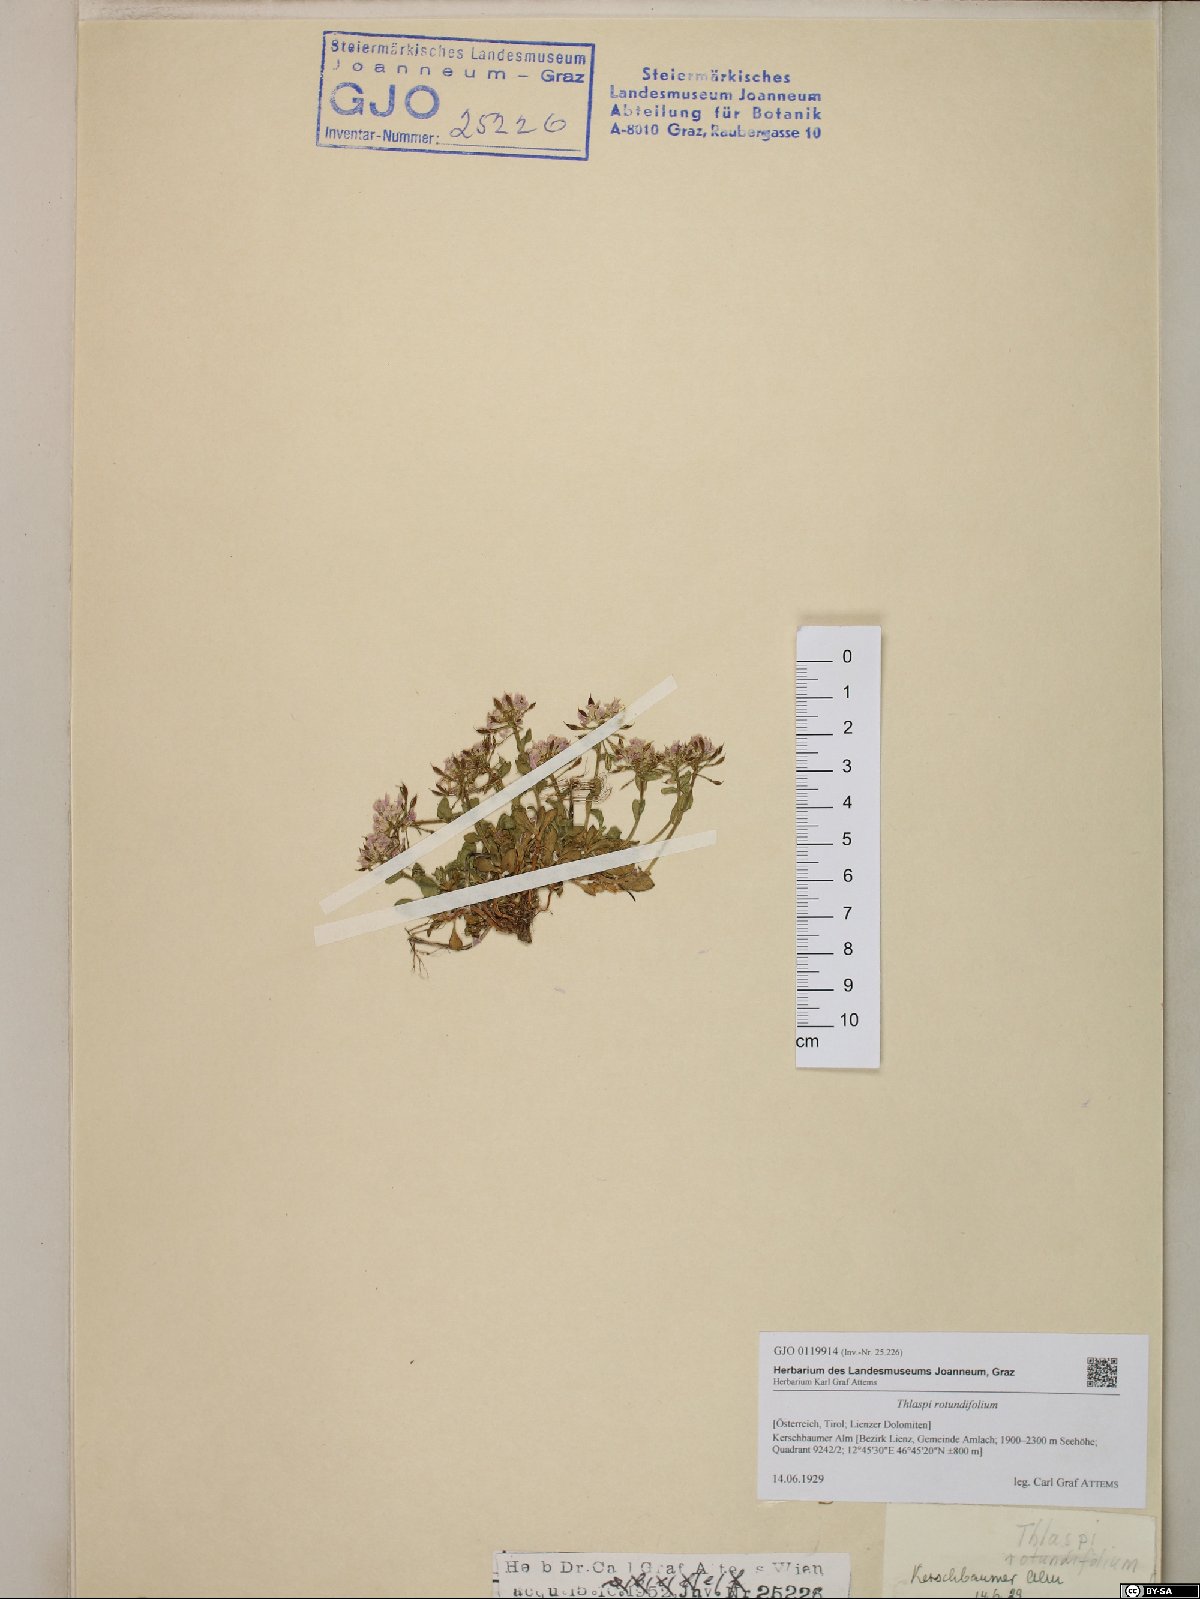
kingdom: Plantae
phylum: Tracheophyta
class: Magnoliopsida
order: Brassicales
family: Brassicaceae
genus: Noccaea
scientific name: Noccaea rotundifolia
